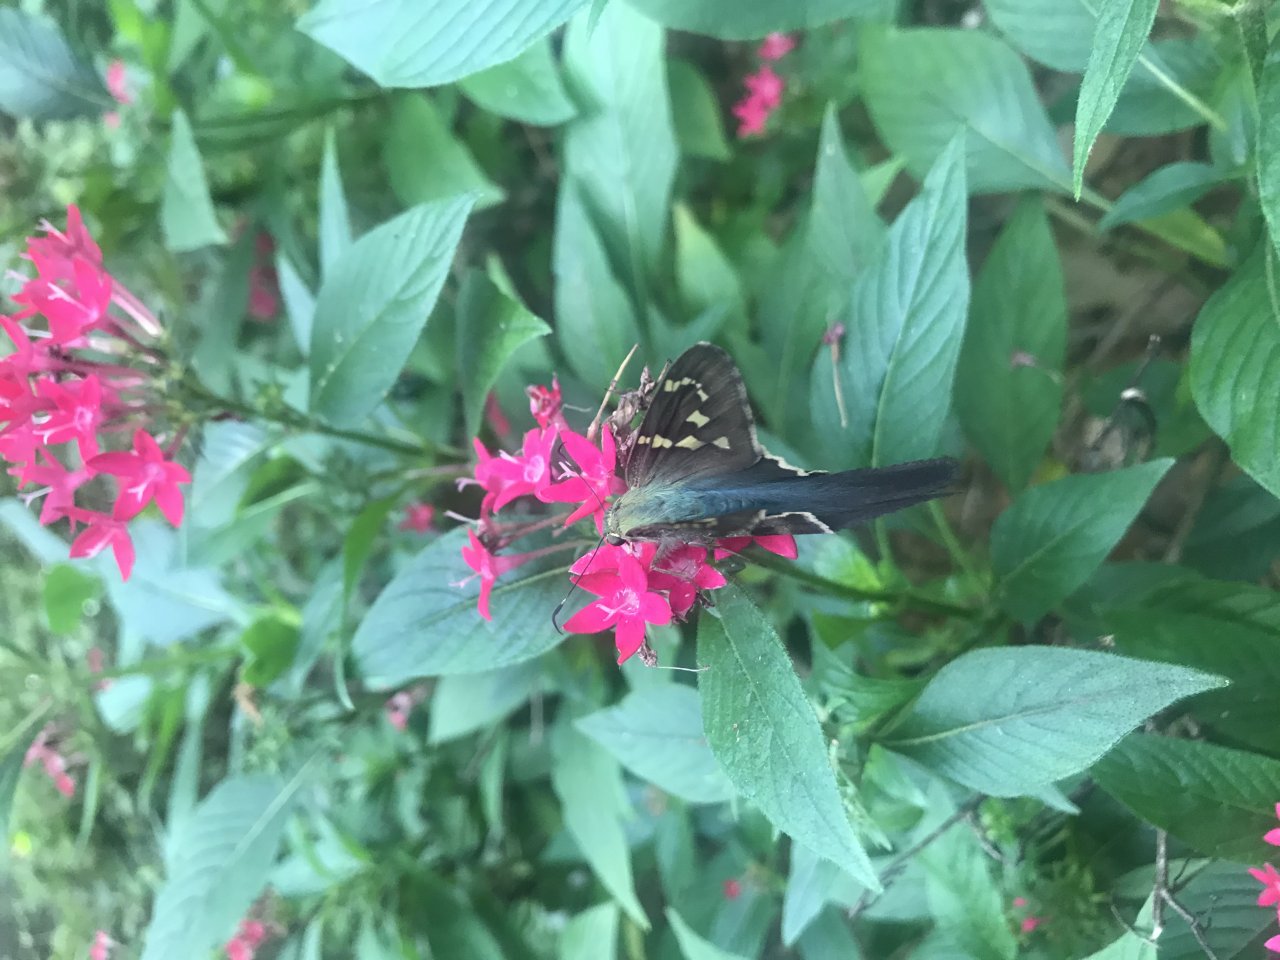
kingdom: Animalia
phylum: Arthropoda
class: Insecta
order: Lepidoptera
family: Hesperiidae
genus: Urbanus
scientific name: Urbanus proteus
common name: Long-tailed Skipper
